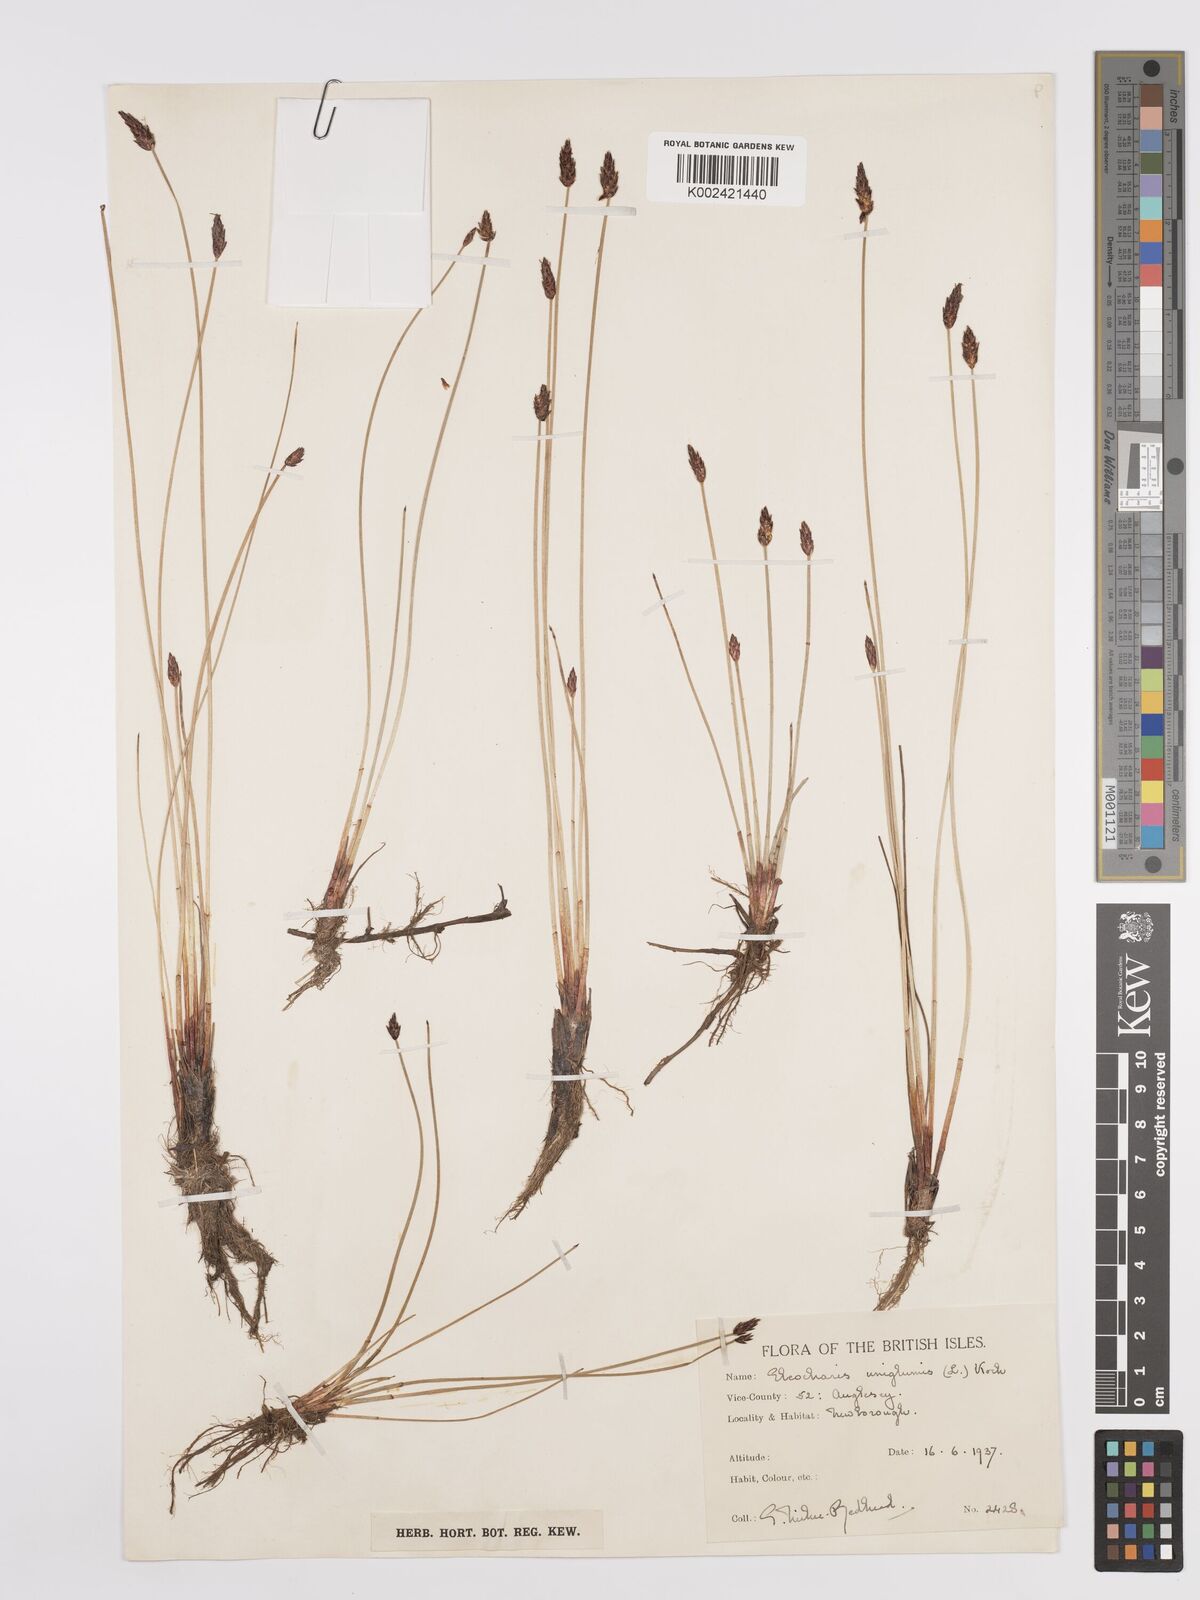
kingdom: Plantae
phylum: Tracheophyta
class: Liliopsida
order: Poales
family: Cyperaceae
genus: Eleocharis
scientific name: Eleocharis uniglumis
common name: Slender spike-rush
